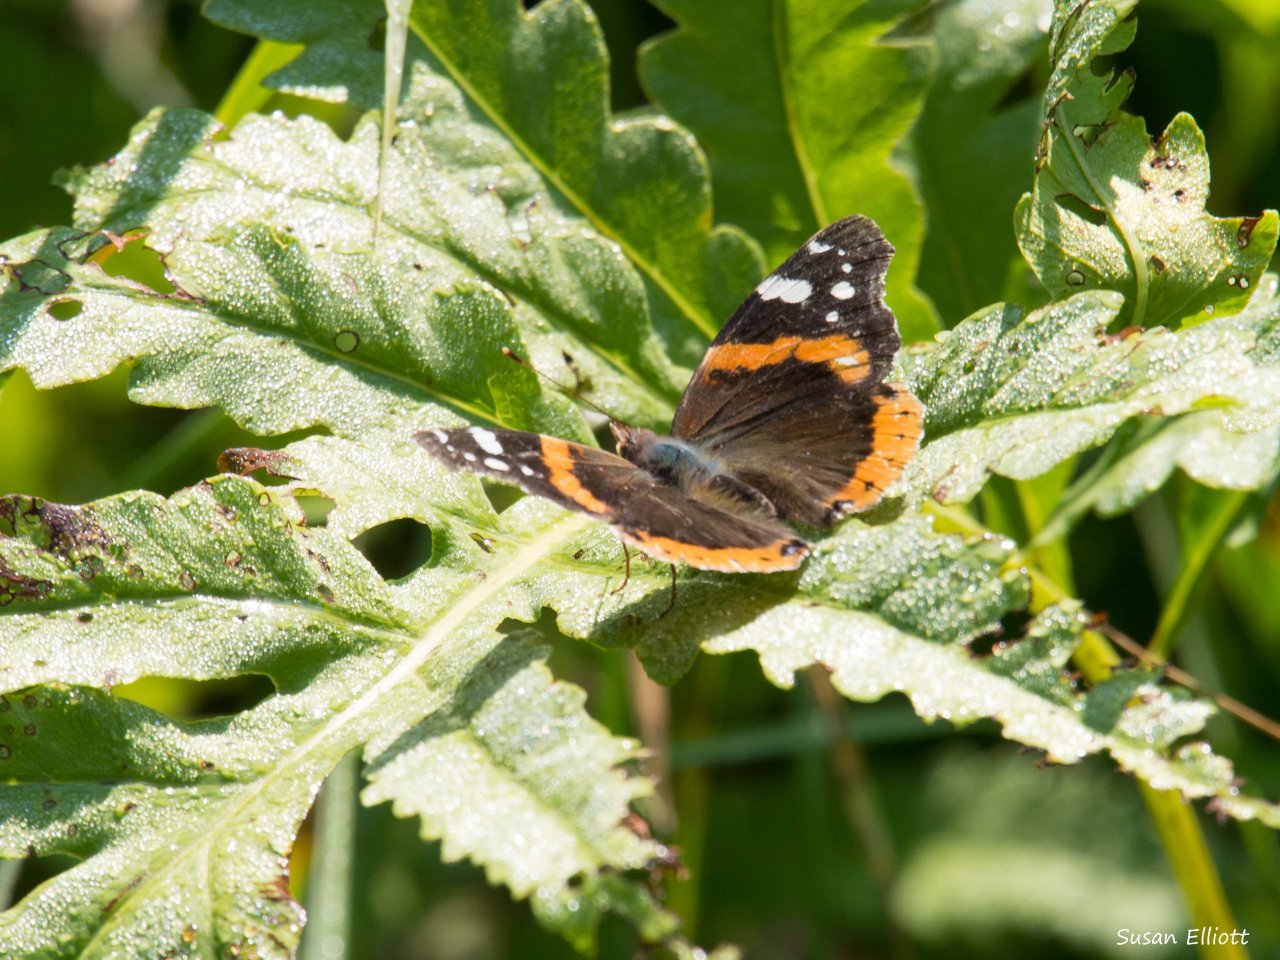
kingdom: Animalia
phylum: Arthropoda
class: Insecta
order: Lepidoptera
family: Nymphalidae
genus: Vanessa
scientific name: Vanessa atalanta
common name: Red Admiral
